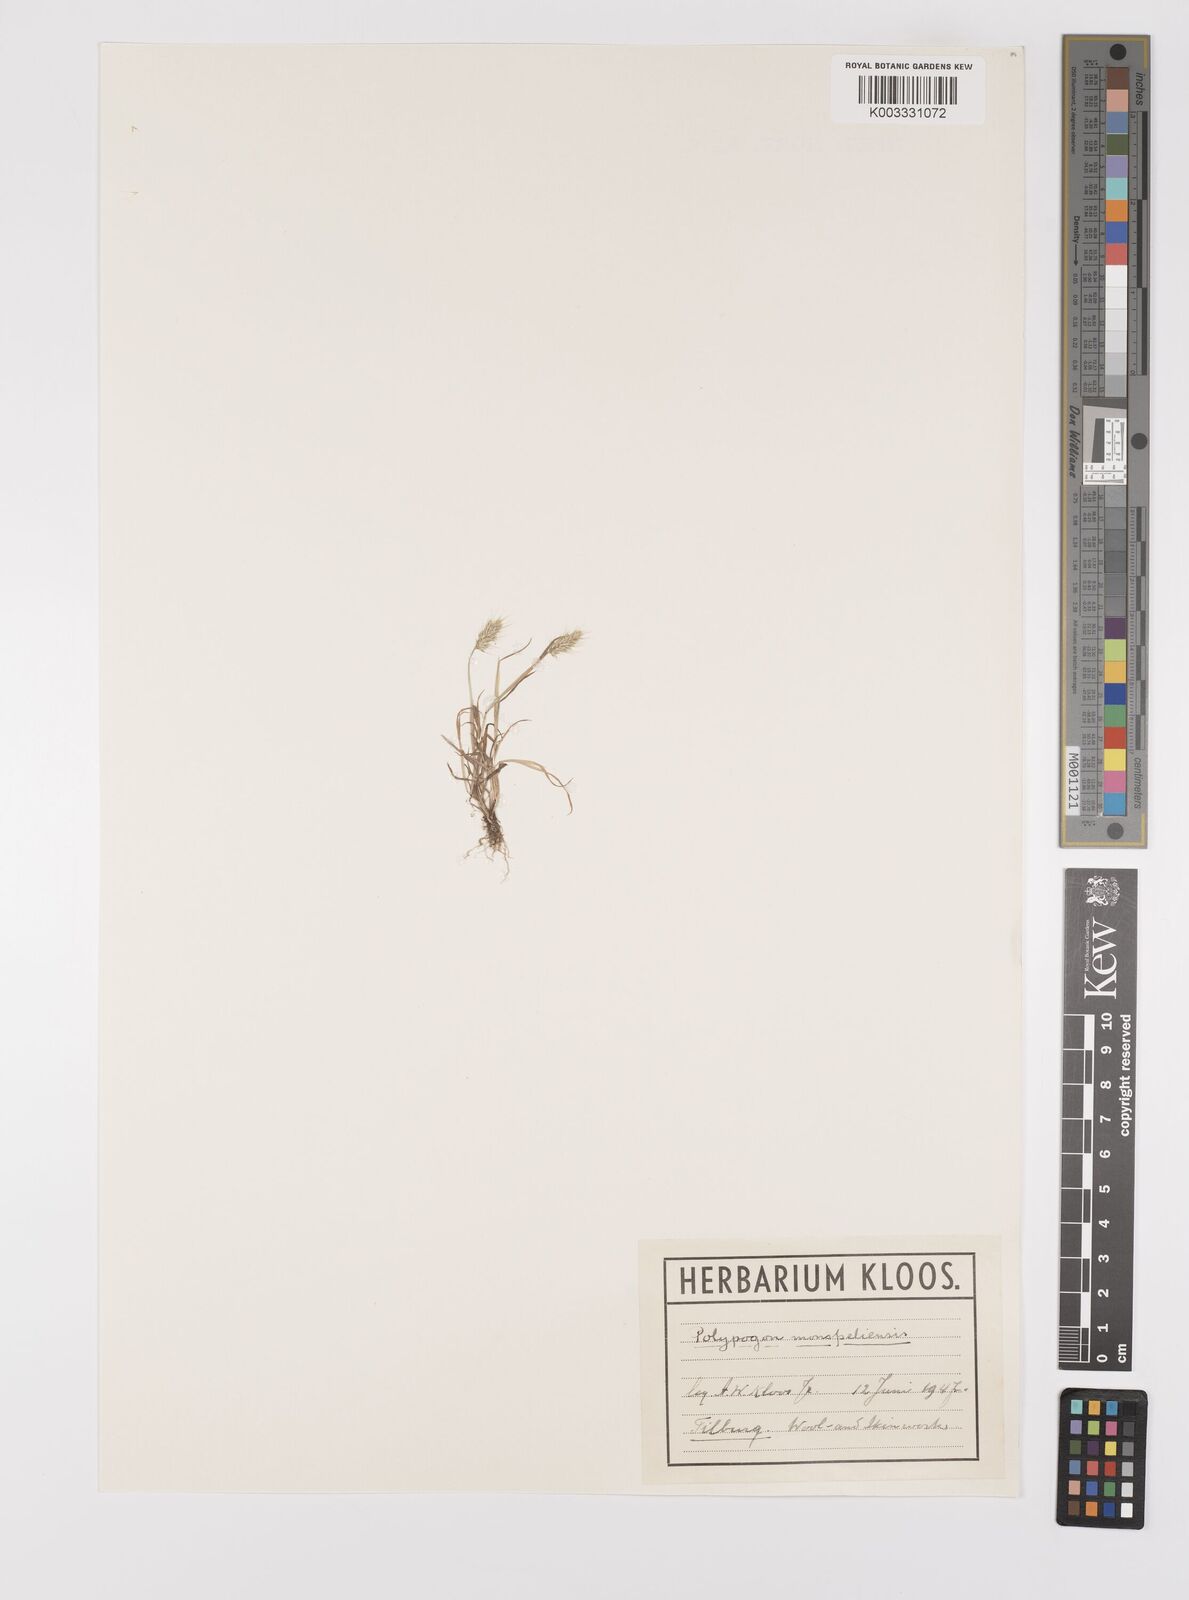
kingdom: Plantae
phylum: Tracheophyta
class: Liliopsida
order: Poales
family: Poaceae
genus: Polypogon
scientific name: Polypogon monspeliensis
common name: Annual rabbitsfoot grass
